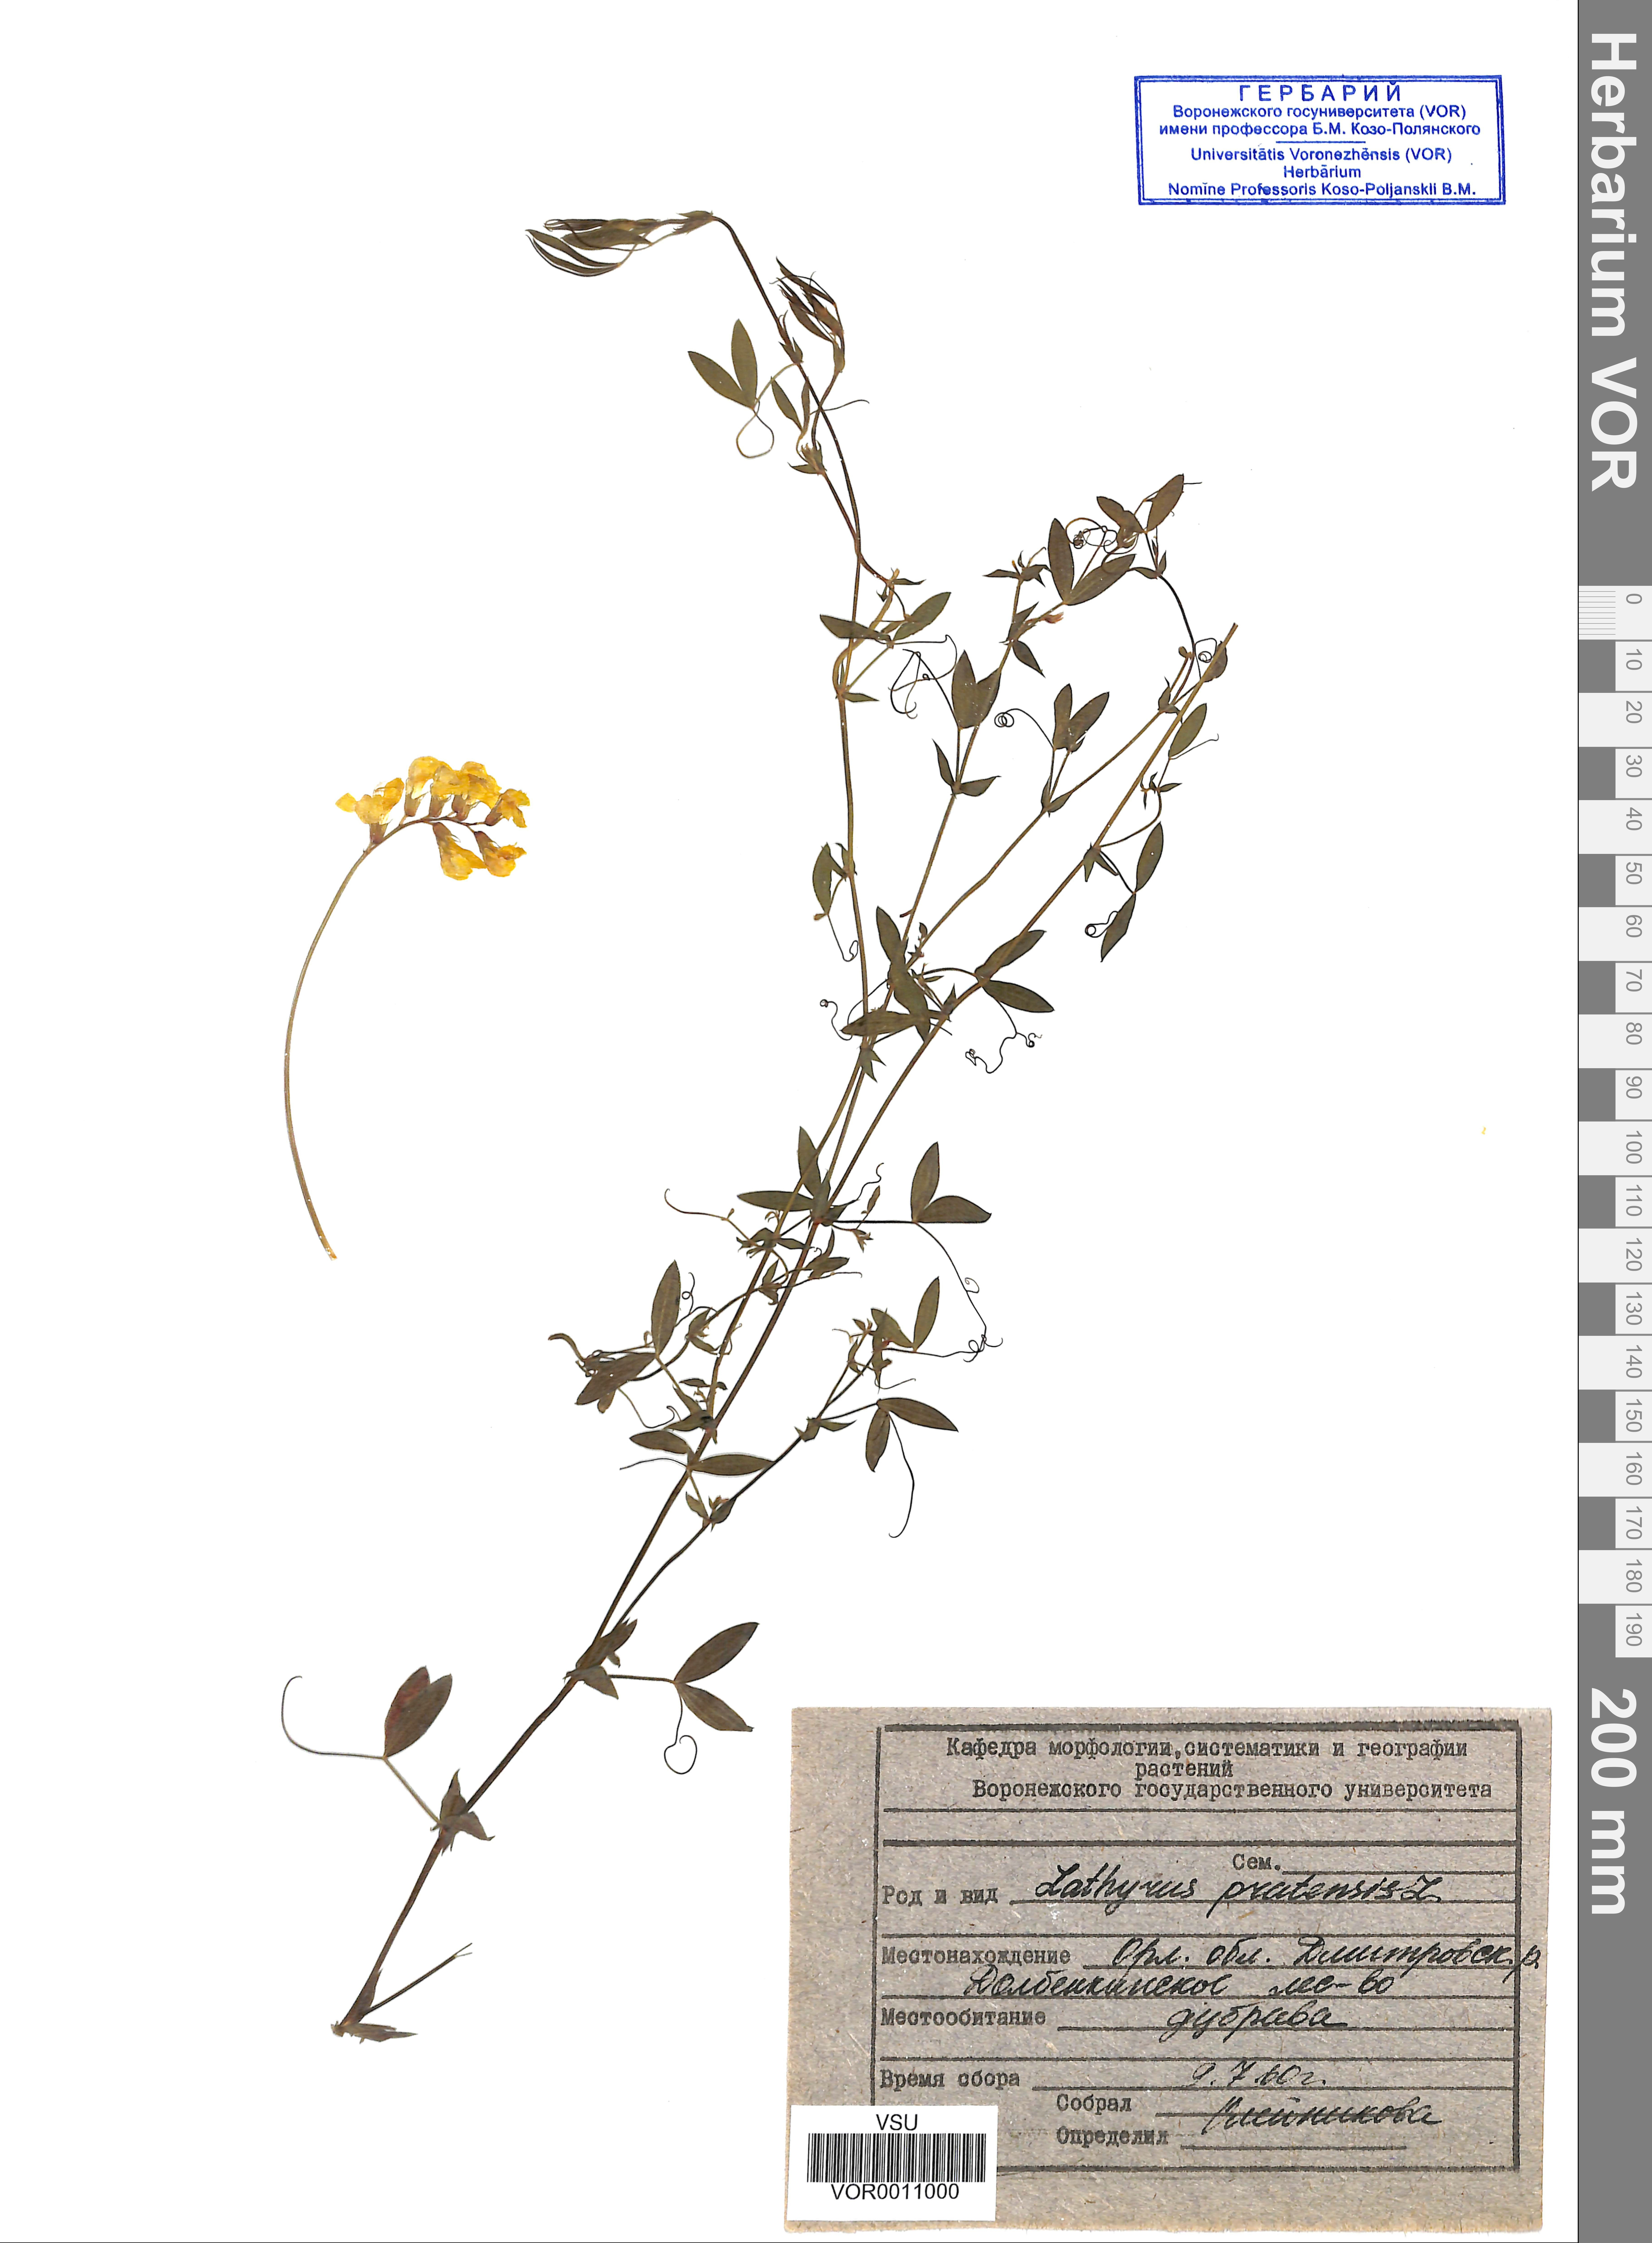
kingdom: Plantae
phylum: Tracheophyta
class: Magnoliopsida
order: Fabales
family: Fabaceae
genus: Lathyrus
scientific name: Lathyrus pratensis
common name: Meadow vetchling
